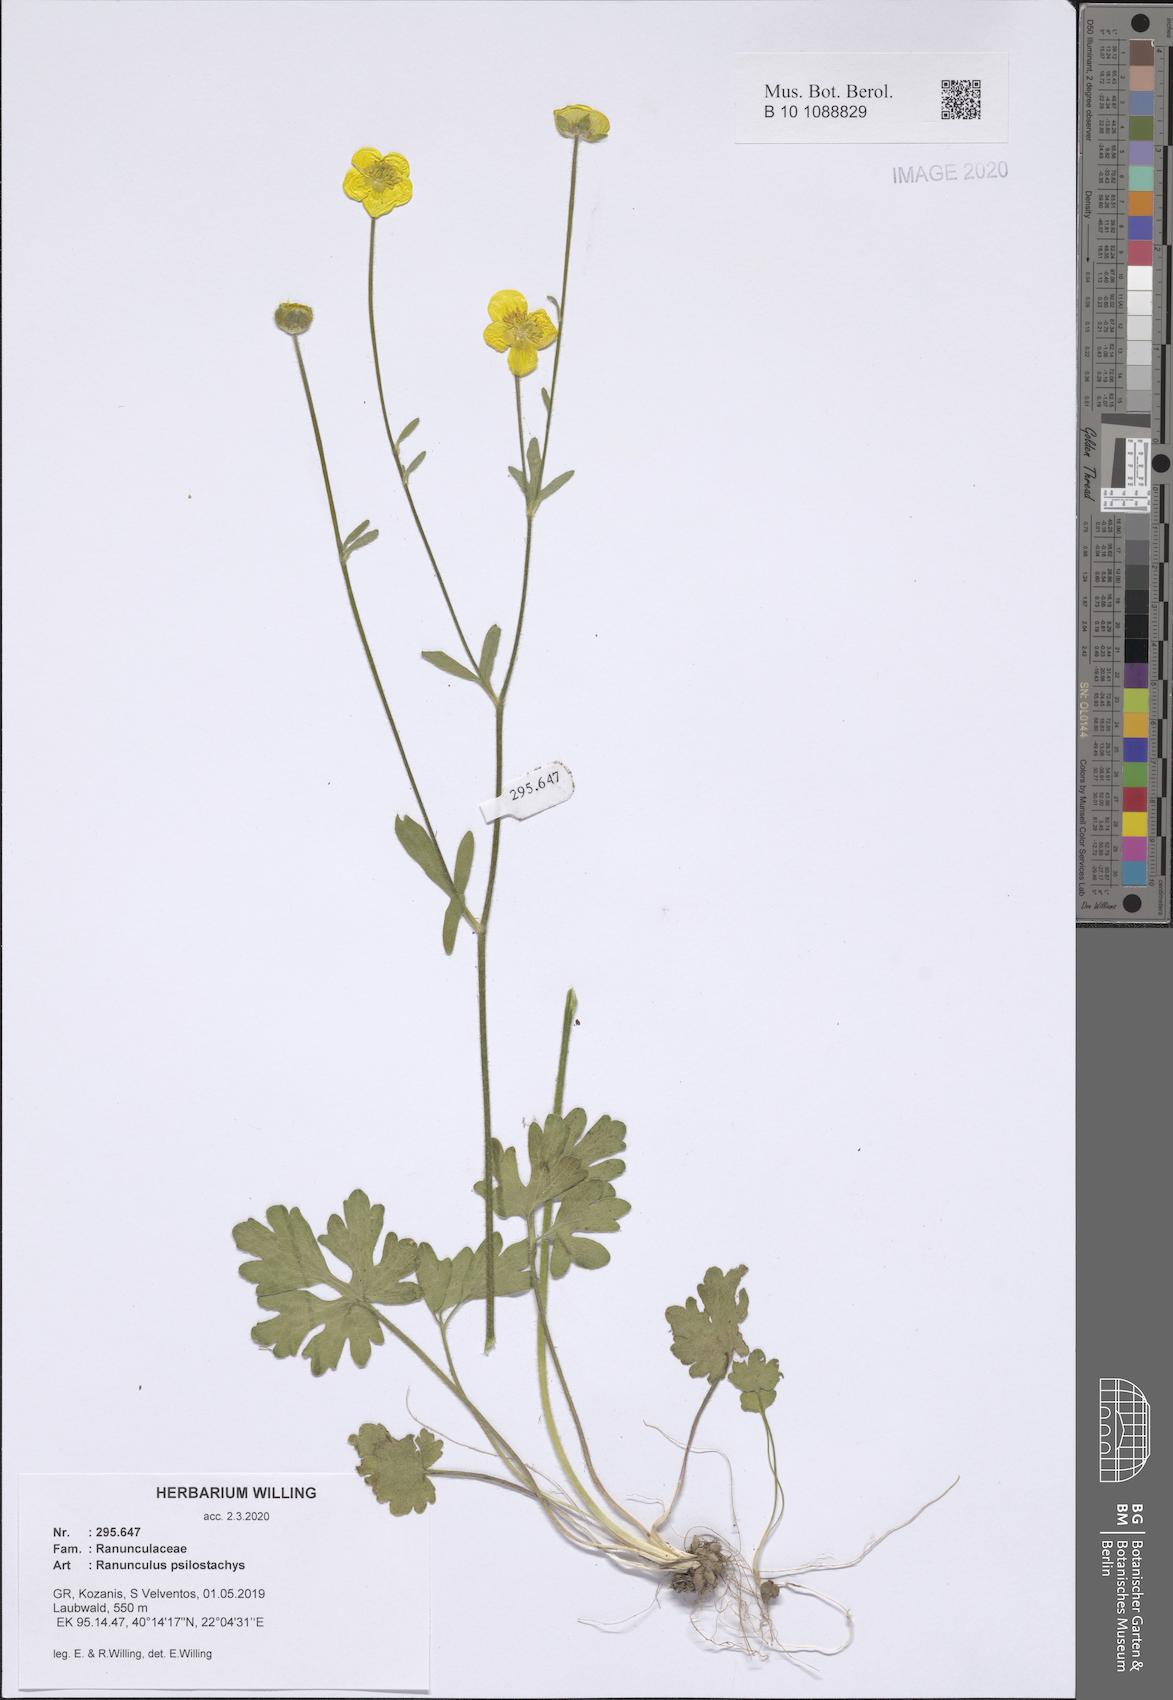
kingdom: Plantae
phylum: Tracheophyta
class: Magnoliopsida
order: Ranunculales
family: Ranunculaceae
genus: Ranunculus
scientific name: Ranunculus psilostachys
